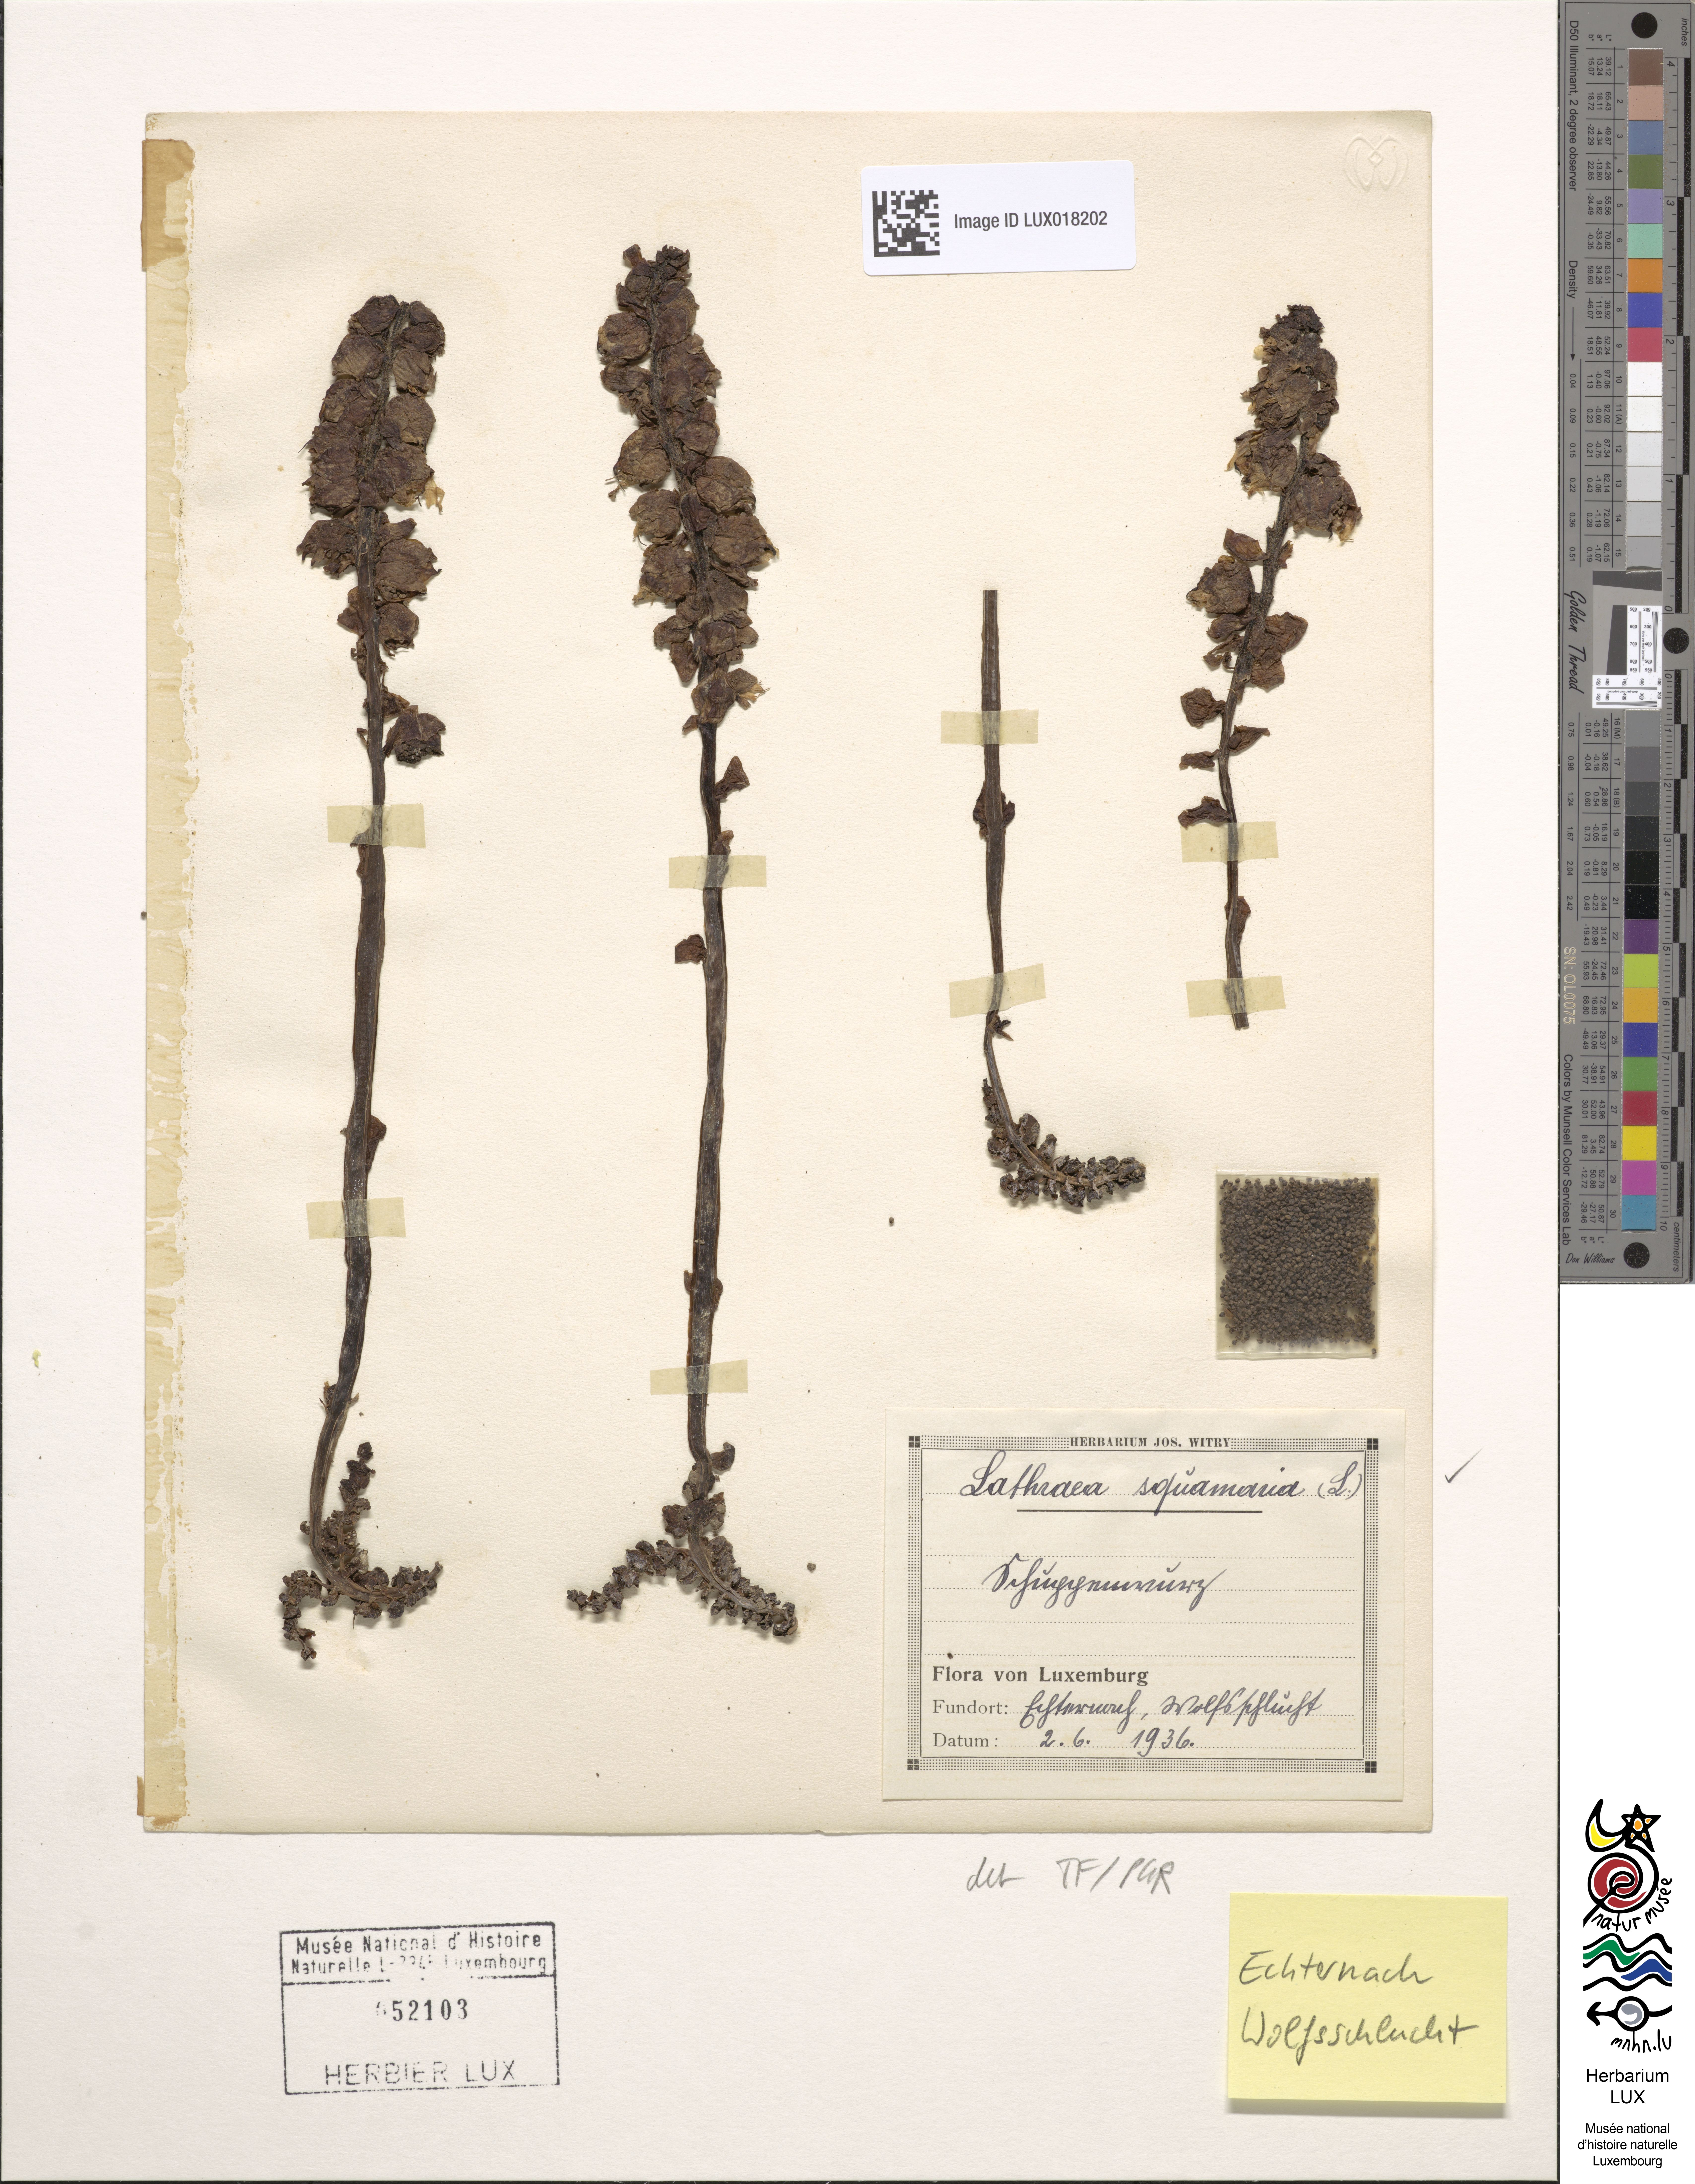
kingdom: Plantae
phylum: Tracheophyta
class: Magnoliopsida
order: Lamiales
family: Orobanchaceae
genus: Lathraea
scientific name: Lathraea squamaria
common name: Toothwort
